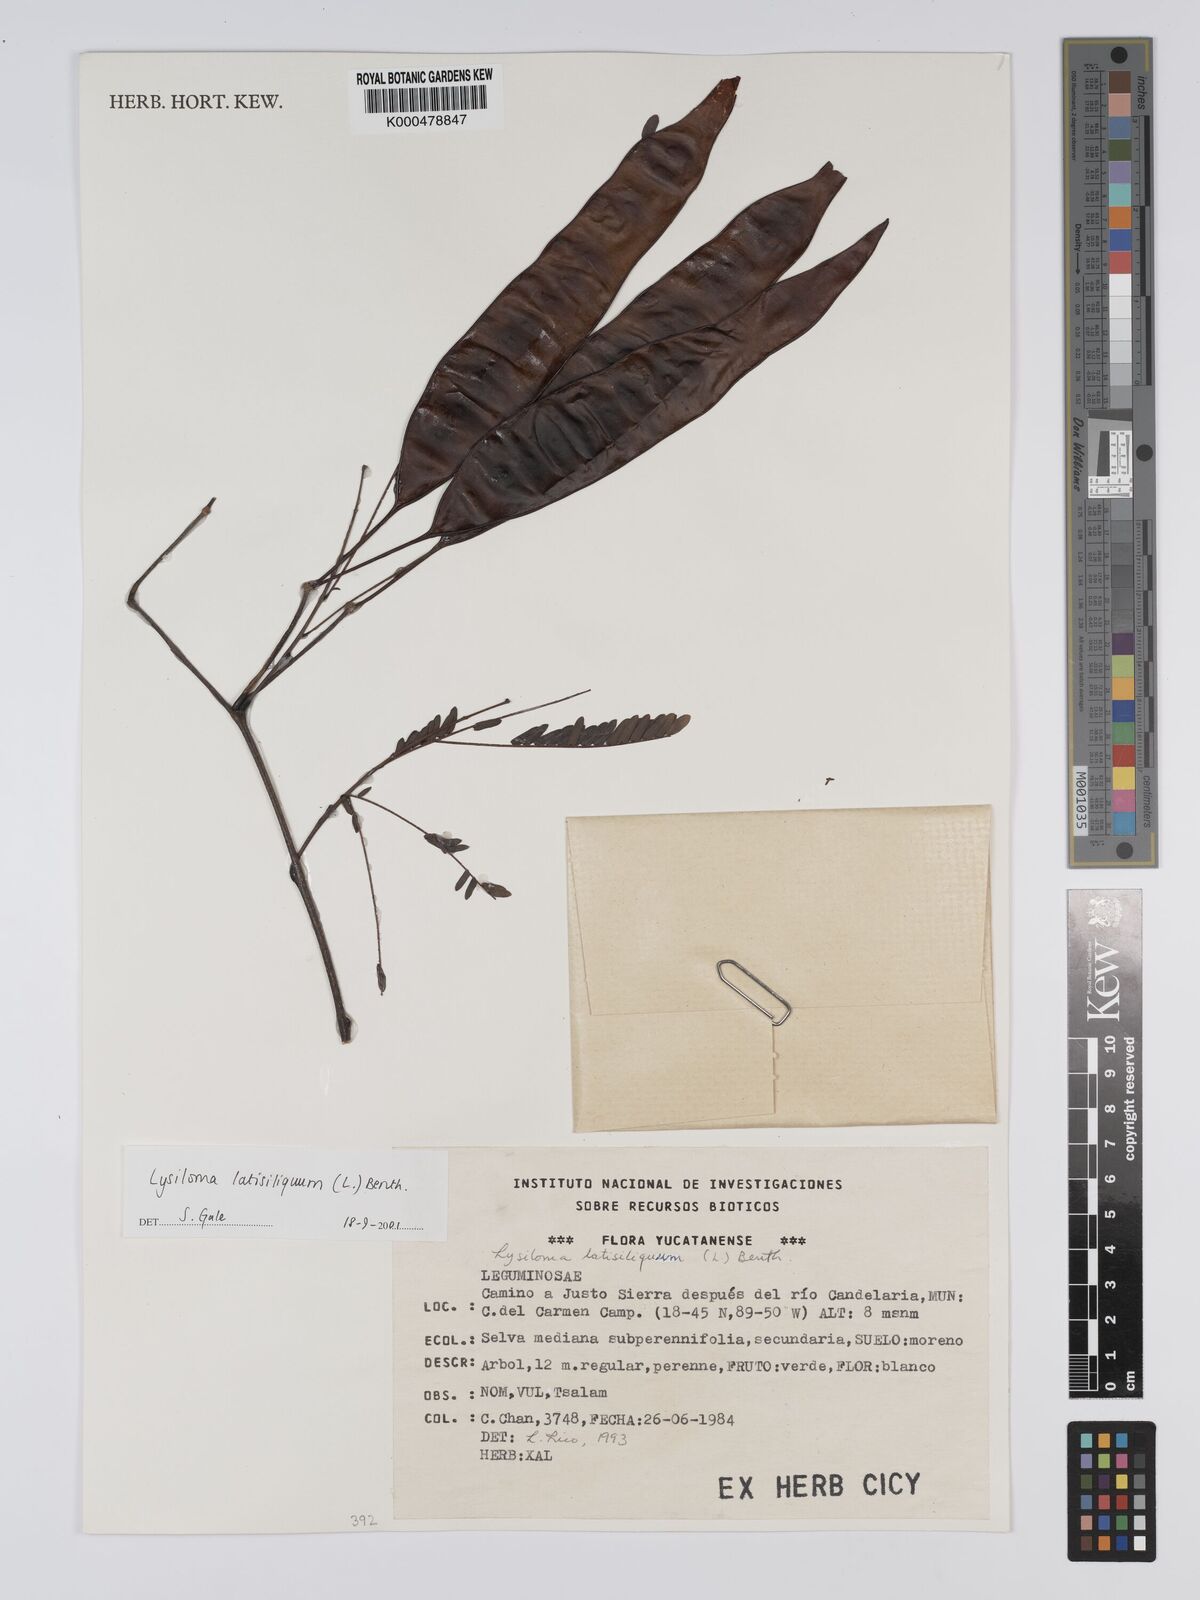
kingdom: Plantae
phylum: Tracheophyta
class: Magnoliopsida
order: Fabales
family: Fabaceae
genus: Lysiloma
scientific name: Lysiloma latisiliquum
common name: Wild tamarind
